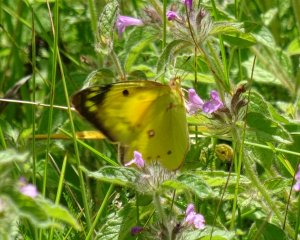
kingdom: Animalia
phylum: Arthropoda
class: Insecta
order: Lepidoptera
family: Pieridae
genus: Colias
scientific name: Colias eurytheme
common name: Orange Sulphur
